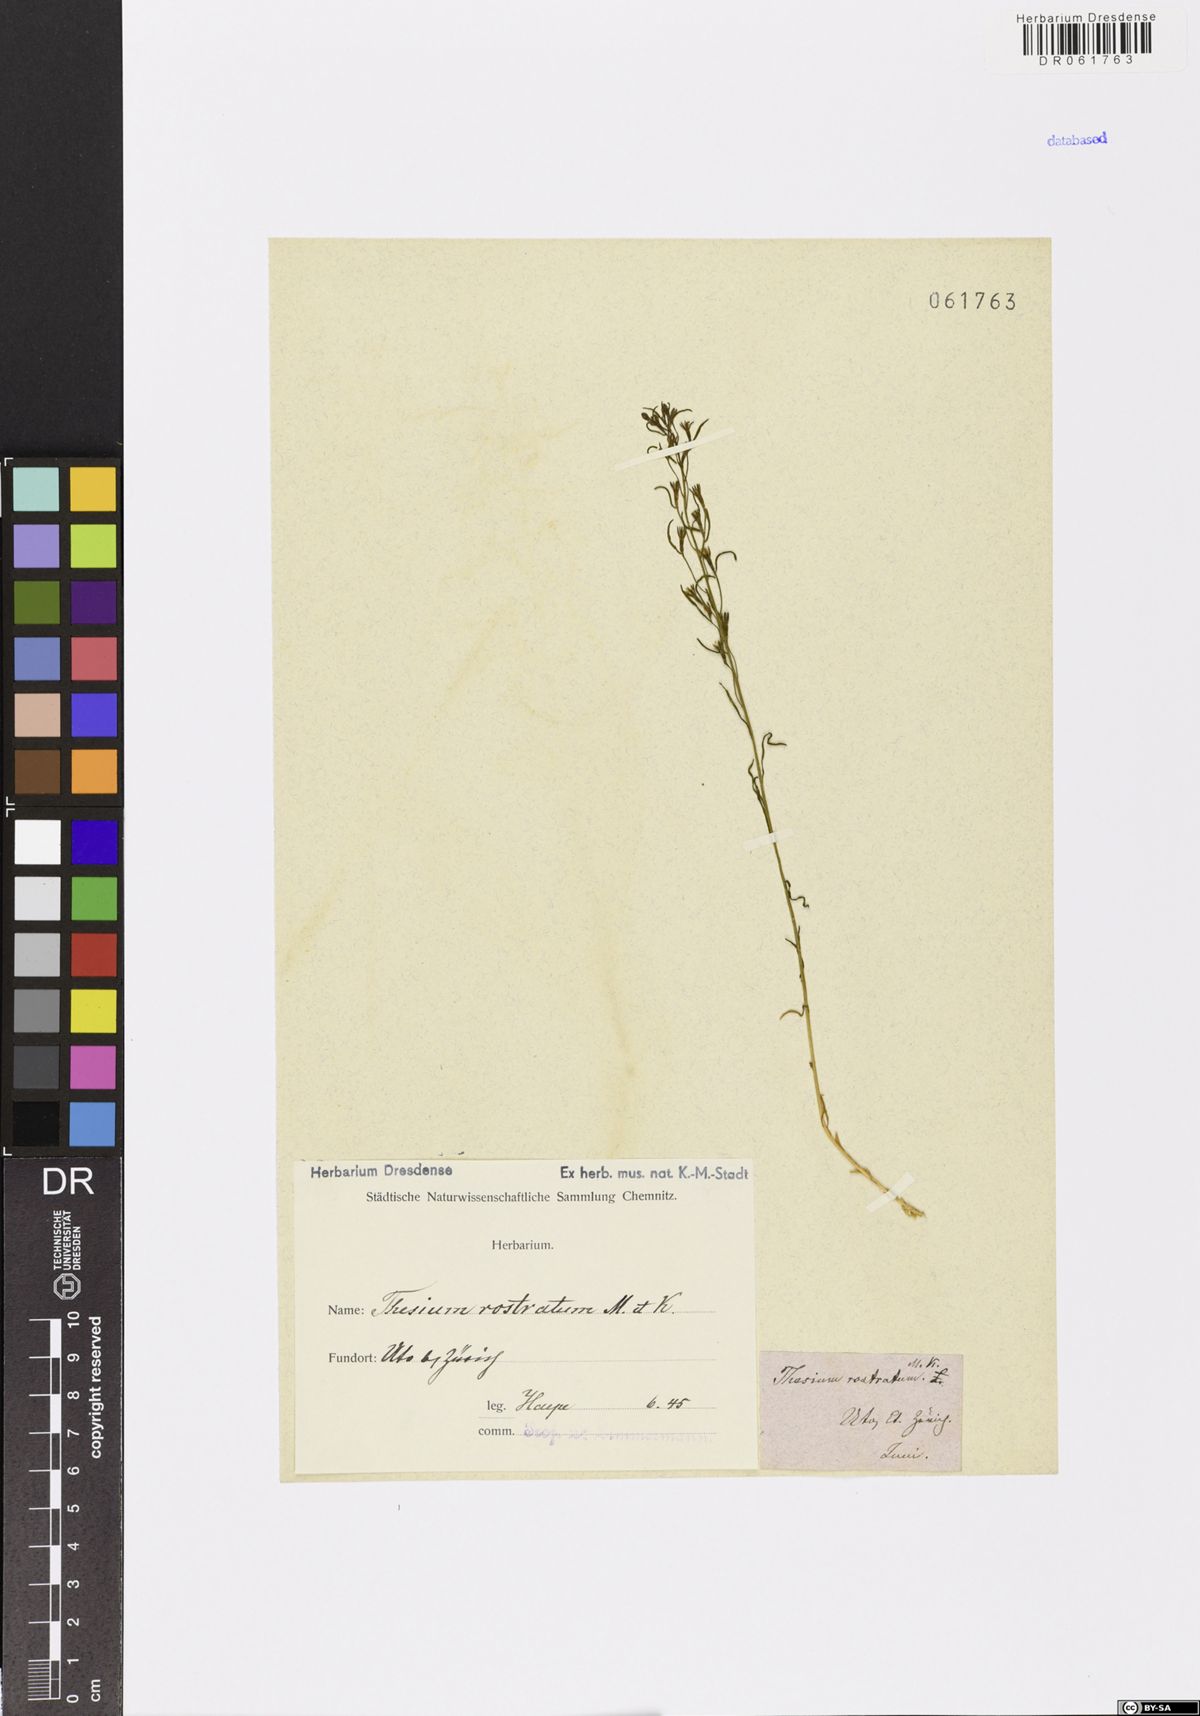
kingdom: Plantae
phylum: Tracheophyta
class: Magnoliopsida
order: Santalales
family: Thesiaceae
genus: Thesium
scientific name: Thesium rostratum
